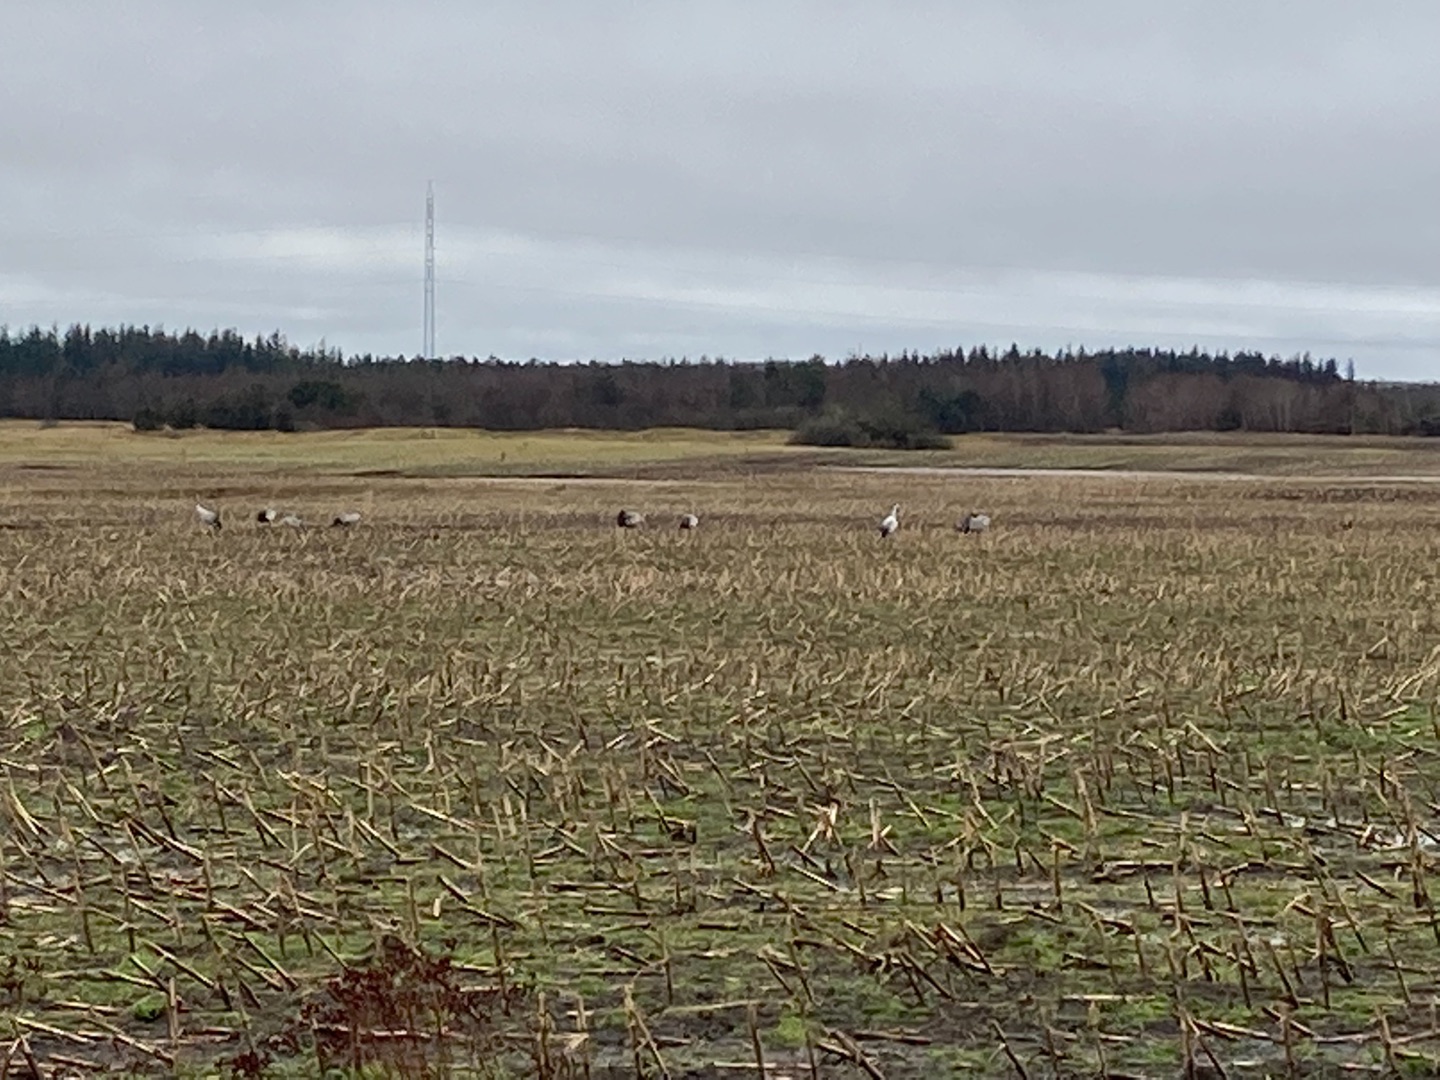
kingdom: Animalia
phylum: Chordata
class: Aves
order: Gruiformes
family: Gruidae
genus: Grus
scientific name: Grus grus
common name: Trane
